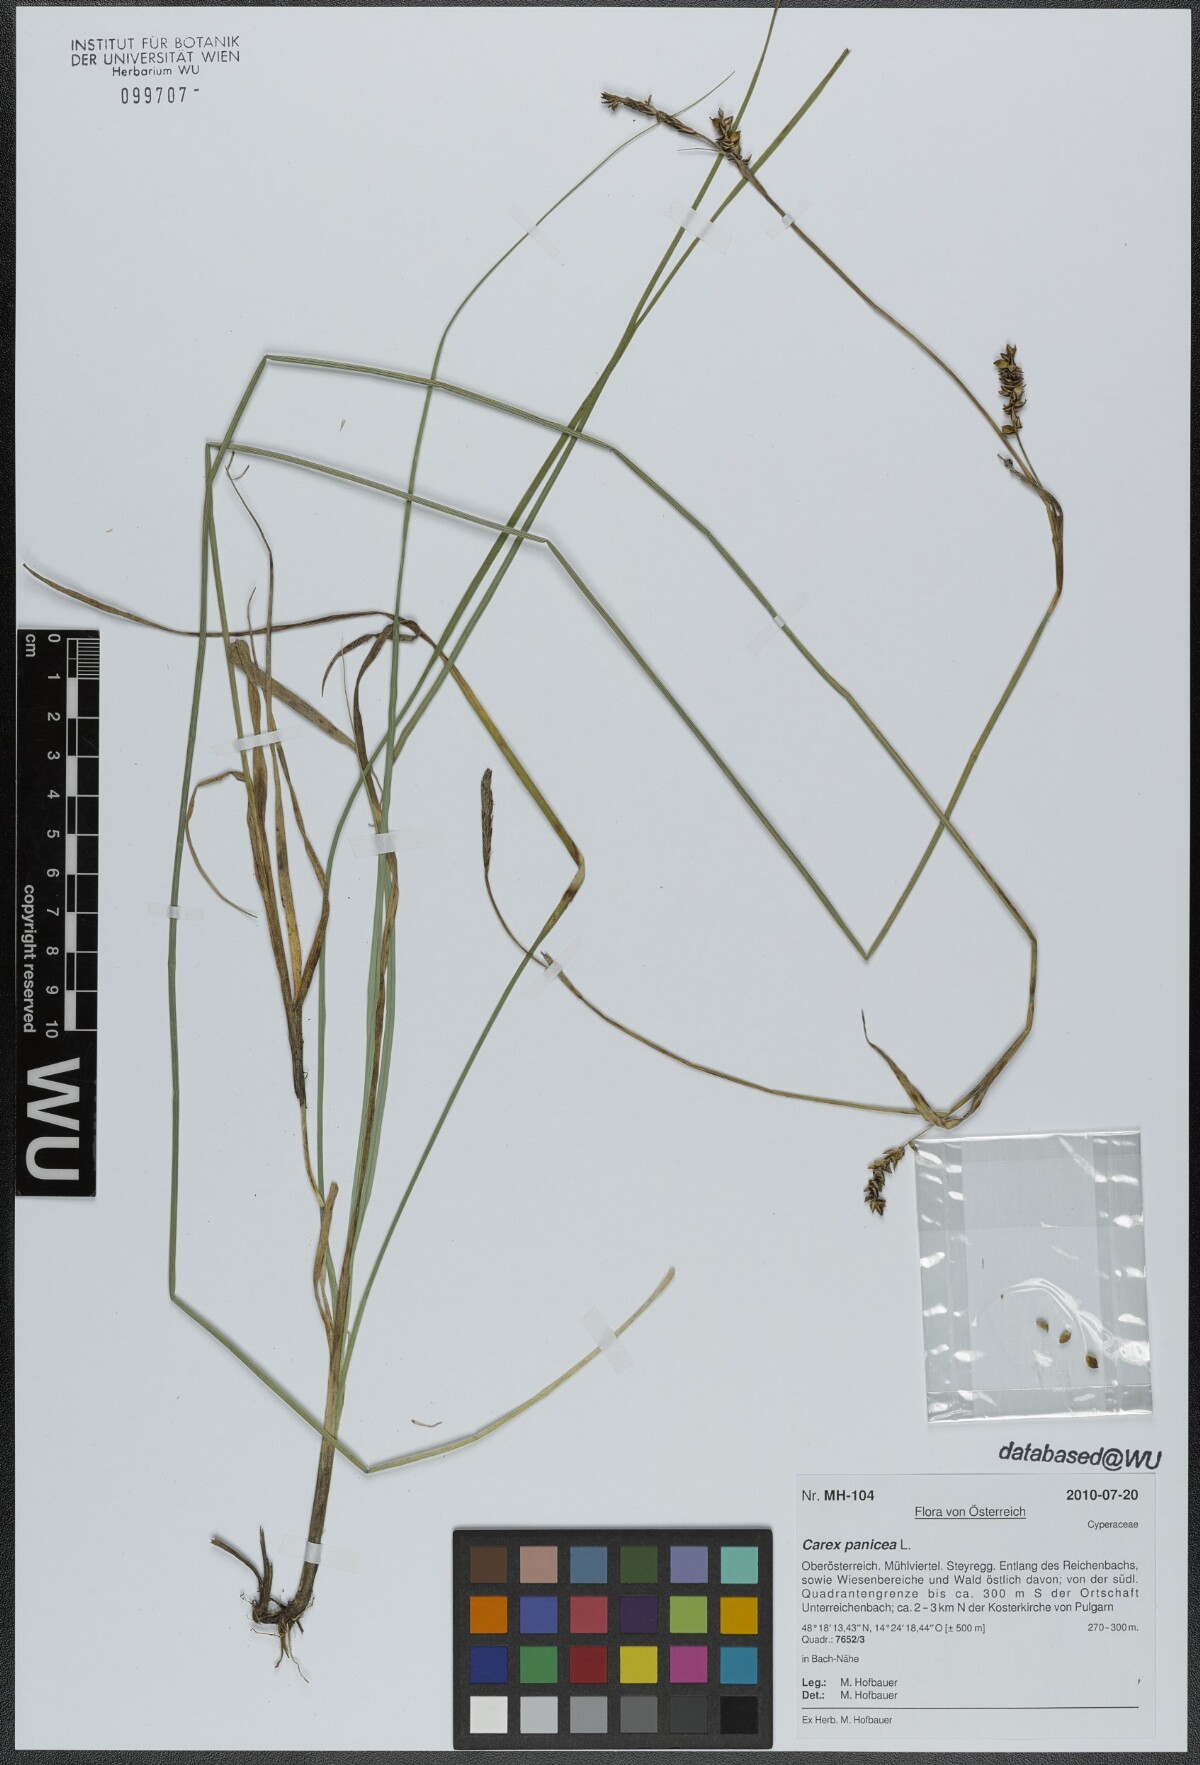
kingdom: Plantae
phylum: Tracheophyta
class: Liliopsida
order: Poales
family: Cyperaceae
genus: Carex
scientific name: Carex panicea
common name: Carnation sedge
